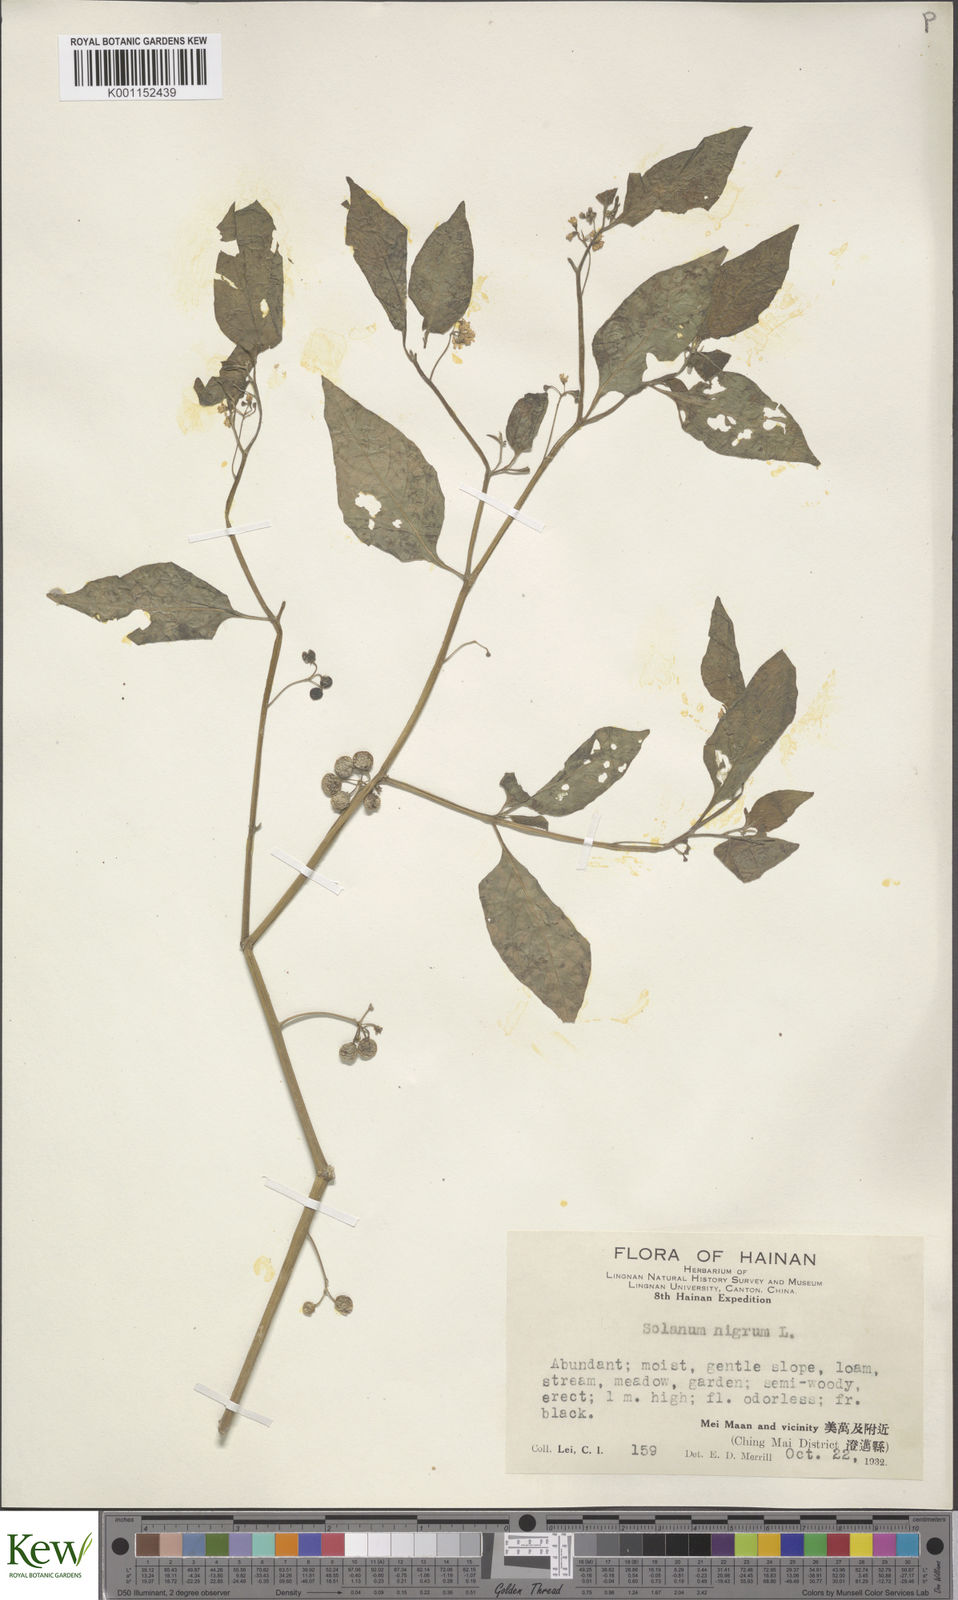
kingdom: Plantae
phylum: Tracheophyta
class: Magnoliopsida
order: Solanales
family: Solanaceae
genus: Solanum
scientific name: Solanum americanum
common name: American black nightshade
